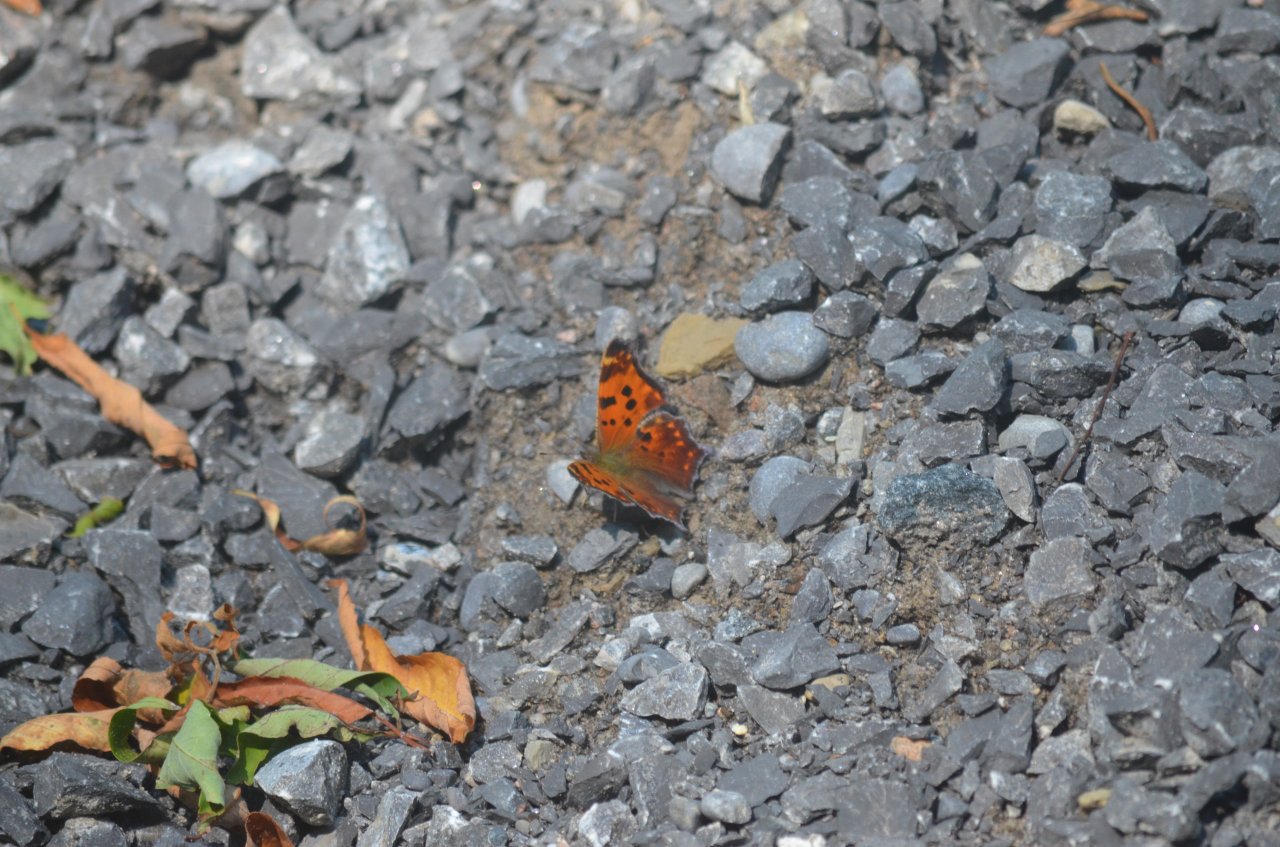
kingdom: Animalia
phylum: Arthropoda
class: Insecta
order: Lepidoptera
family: Nymphalidae
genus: Polygonia
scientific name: Polygonia comma
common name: Eastern Comma
